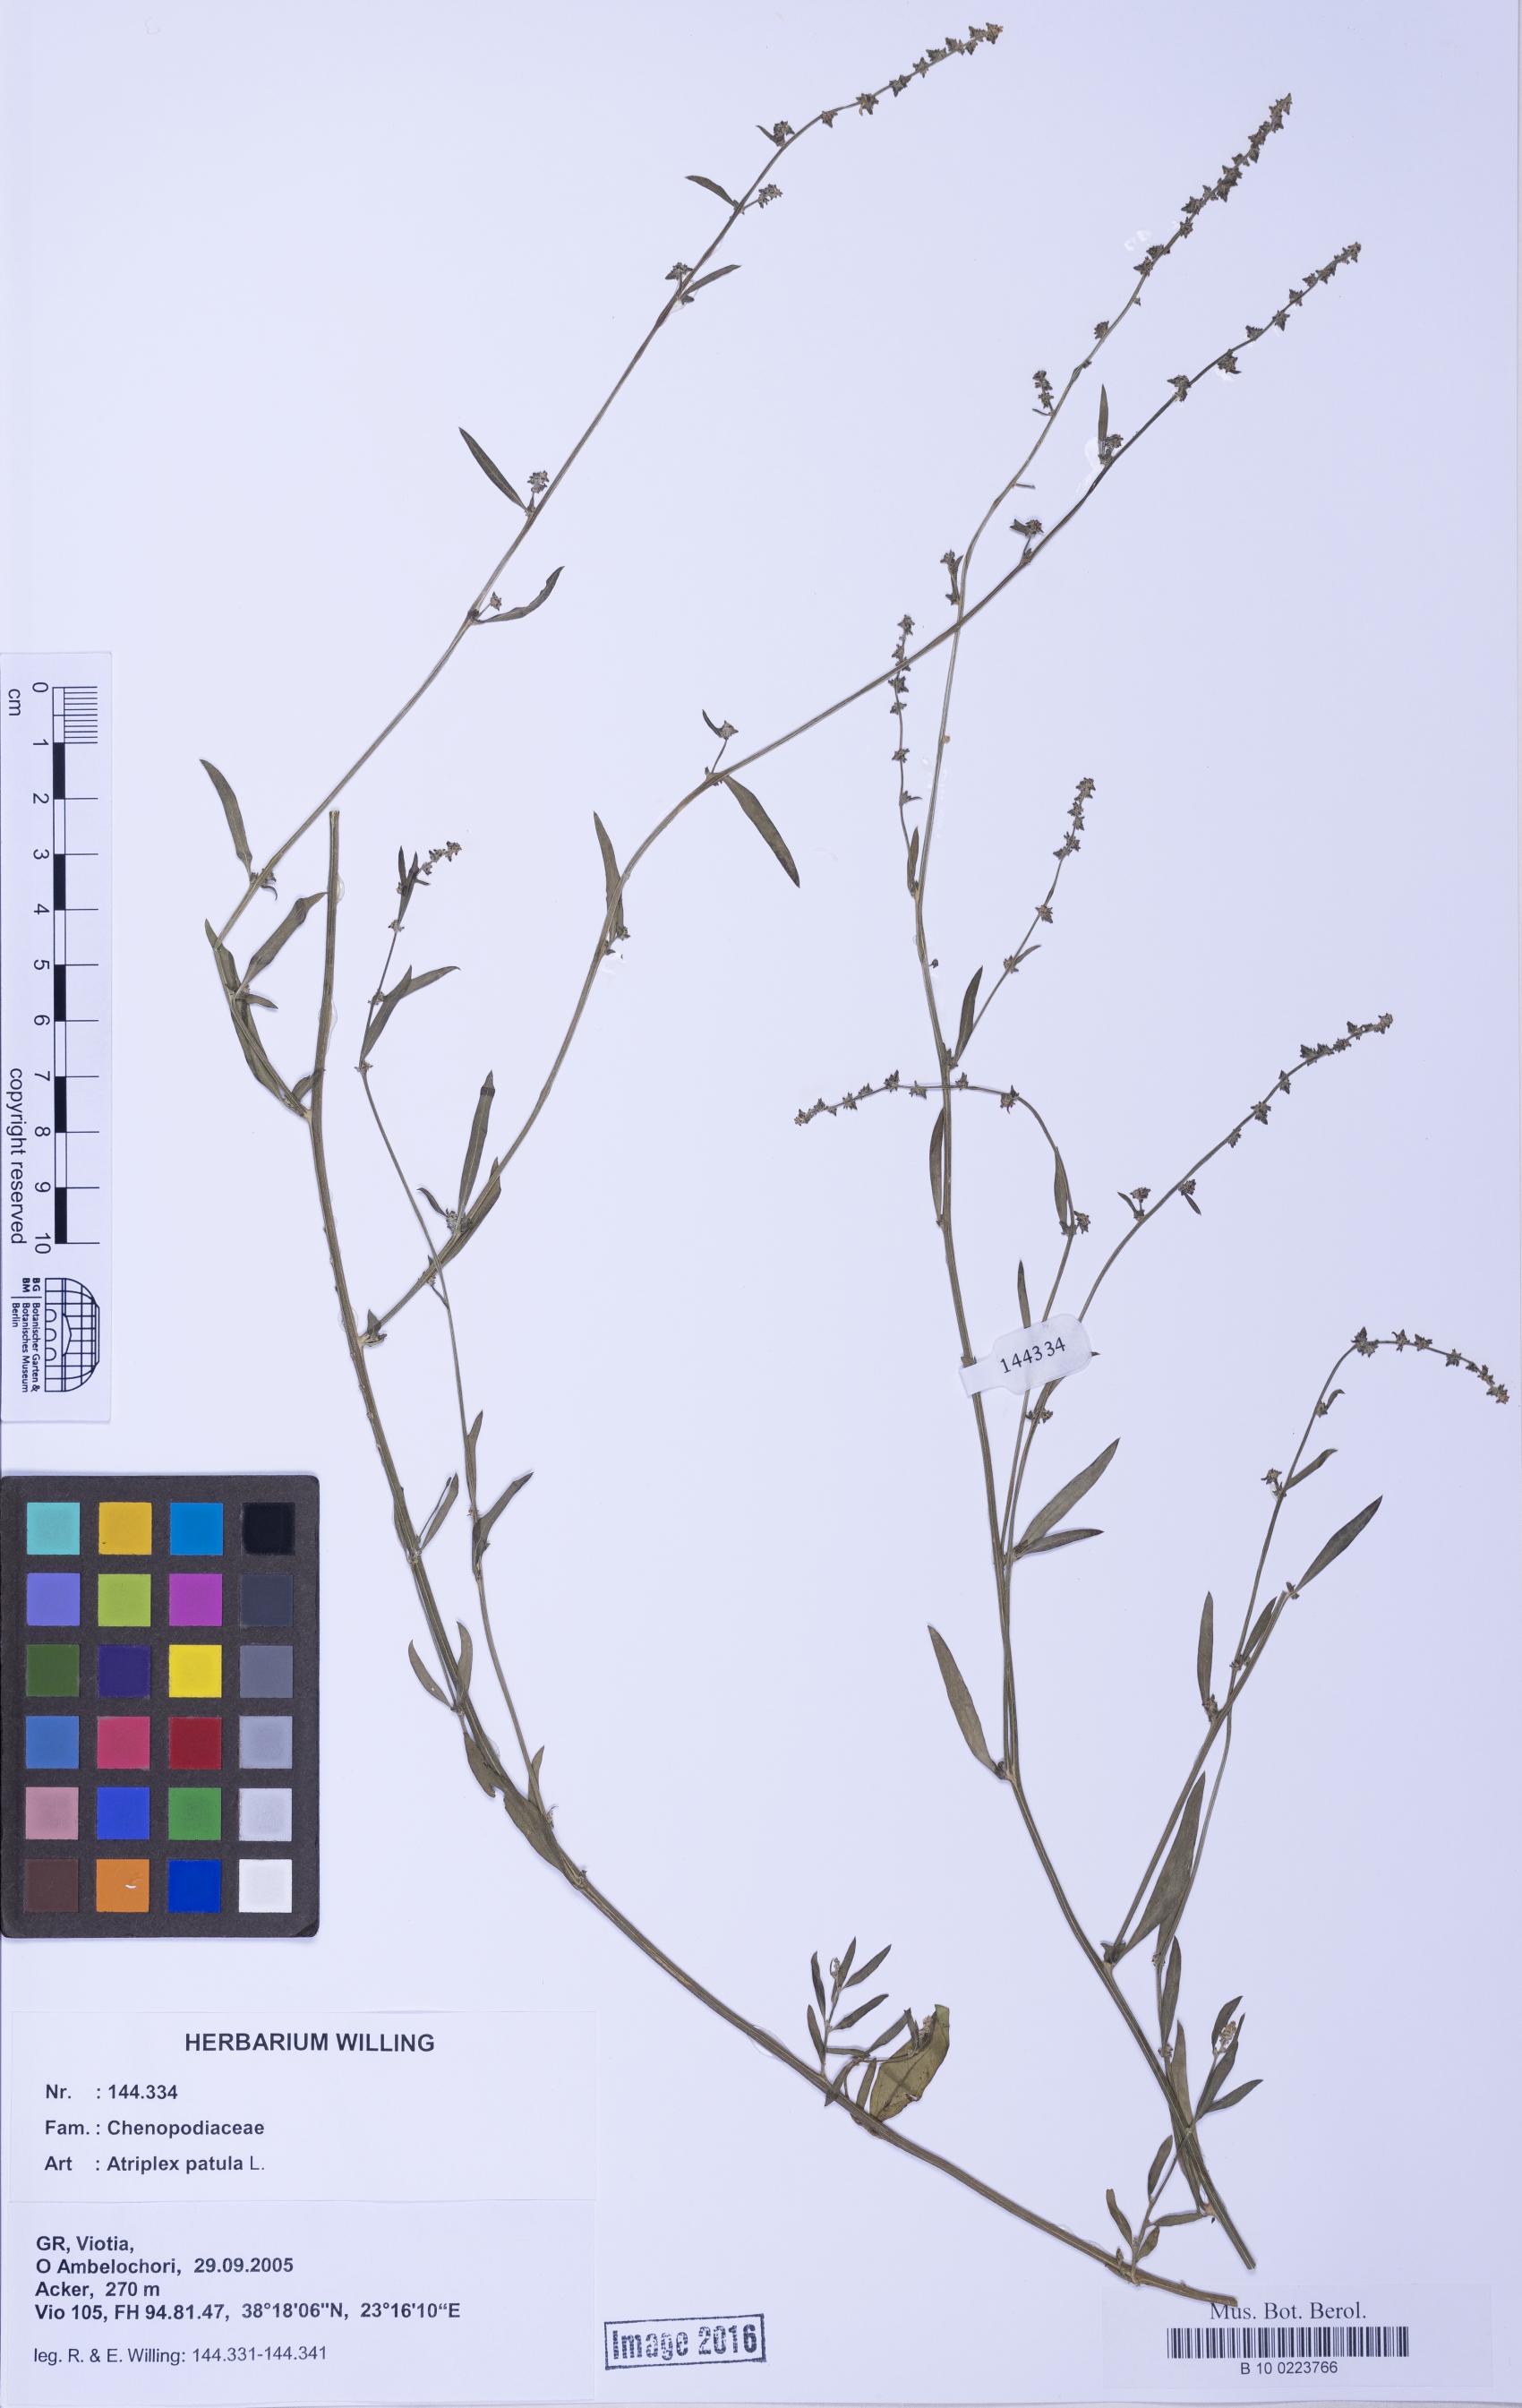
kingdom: Plantae
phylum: Tracheophyta
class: Magnoliopsida
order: Caryophyllales
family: Amaranthaceae
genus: Atriplex
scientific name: Atriplex patula
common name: Common orache
